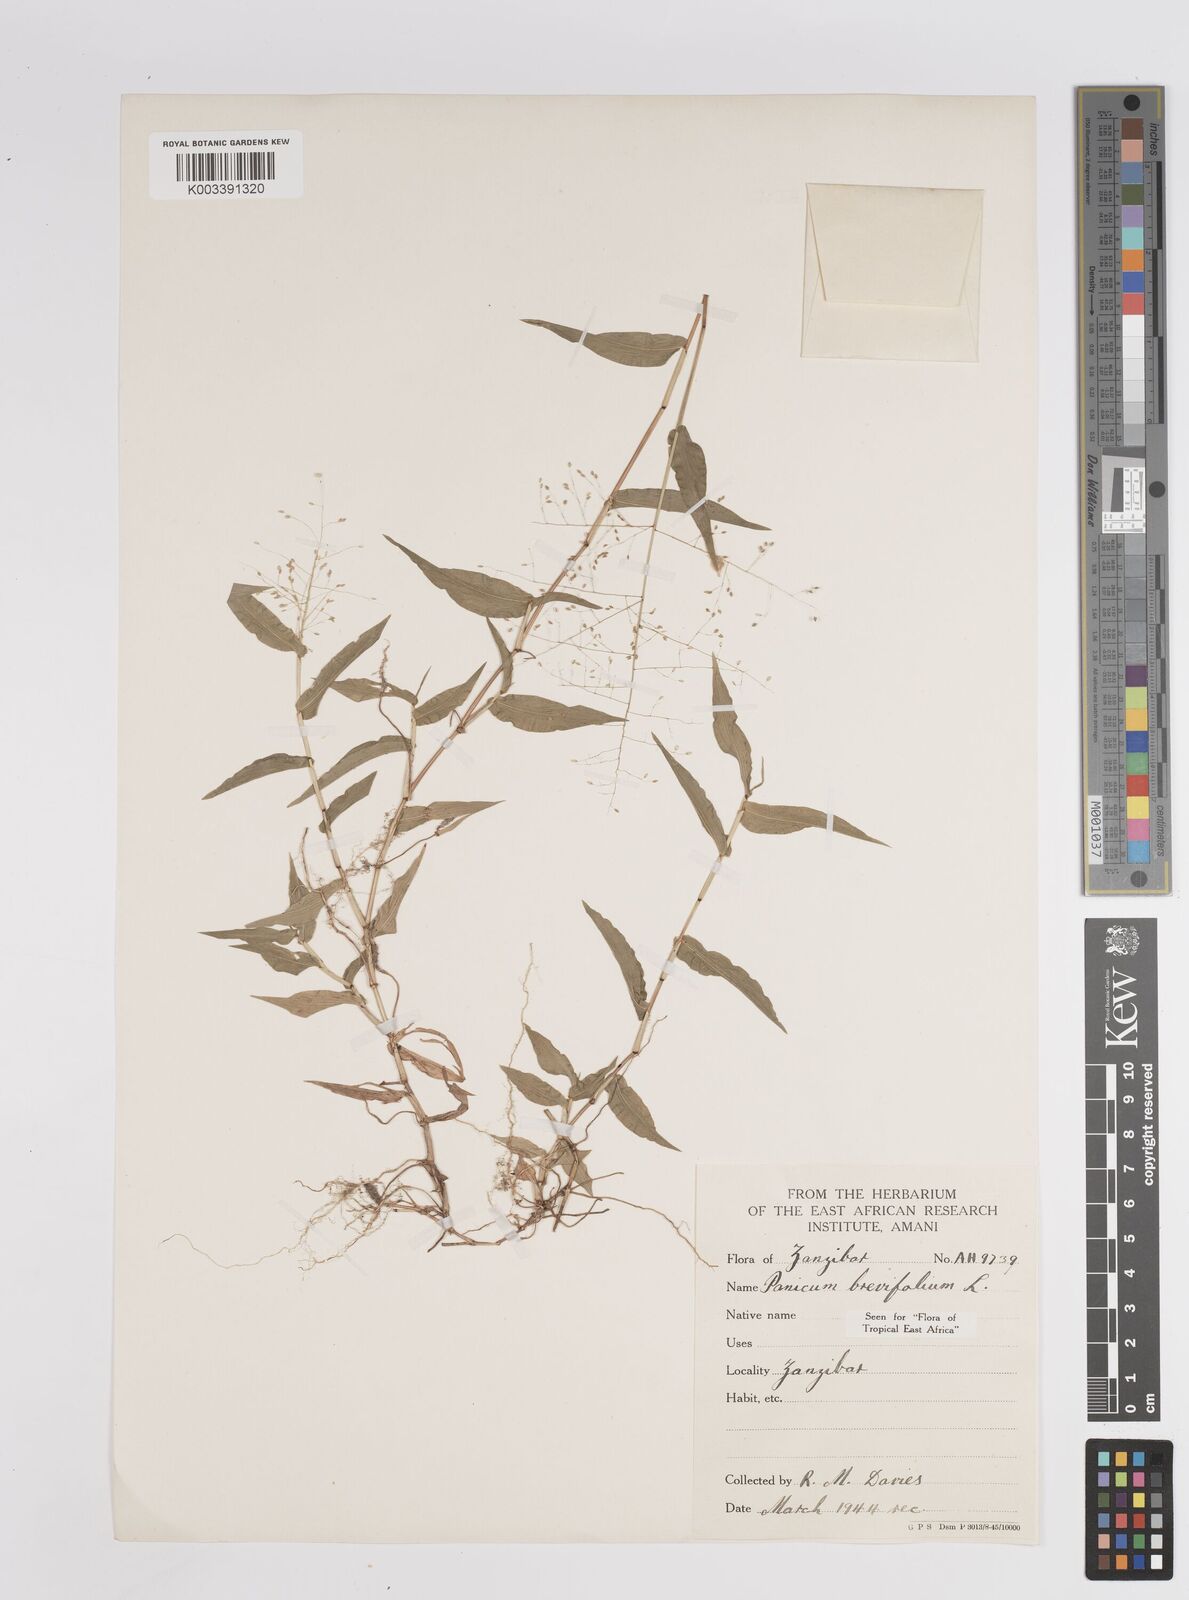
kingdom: Plantae
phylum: Tracheophyta
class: Liliopsida
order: Poales
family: Poaceae
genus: Panicum
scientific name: Panicum brevifolium
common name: Shortleaf panic grass
